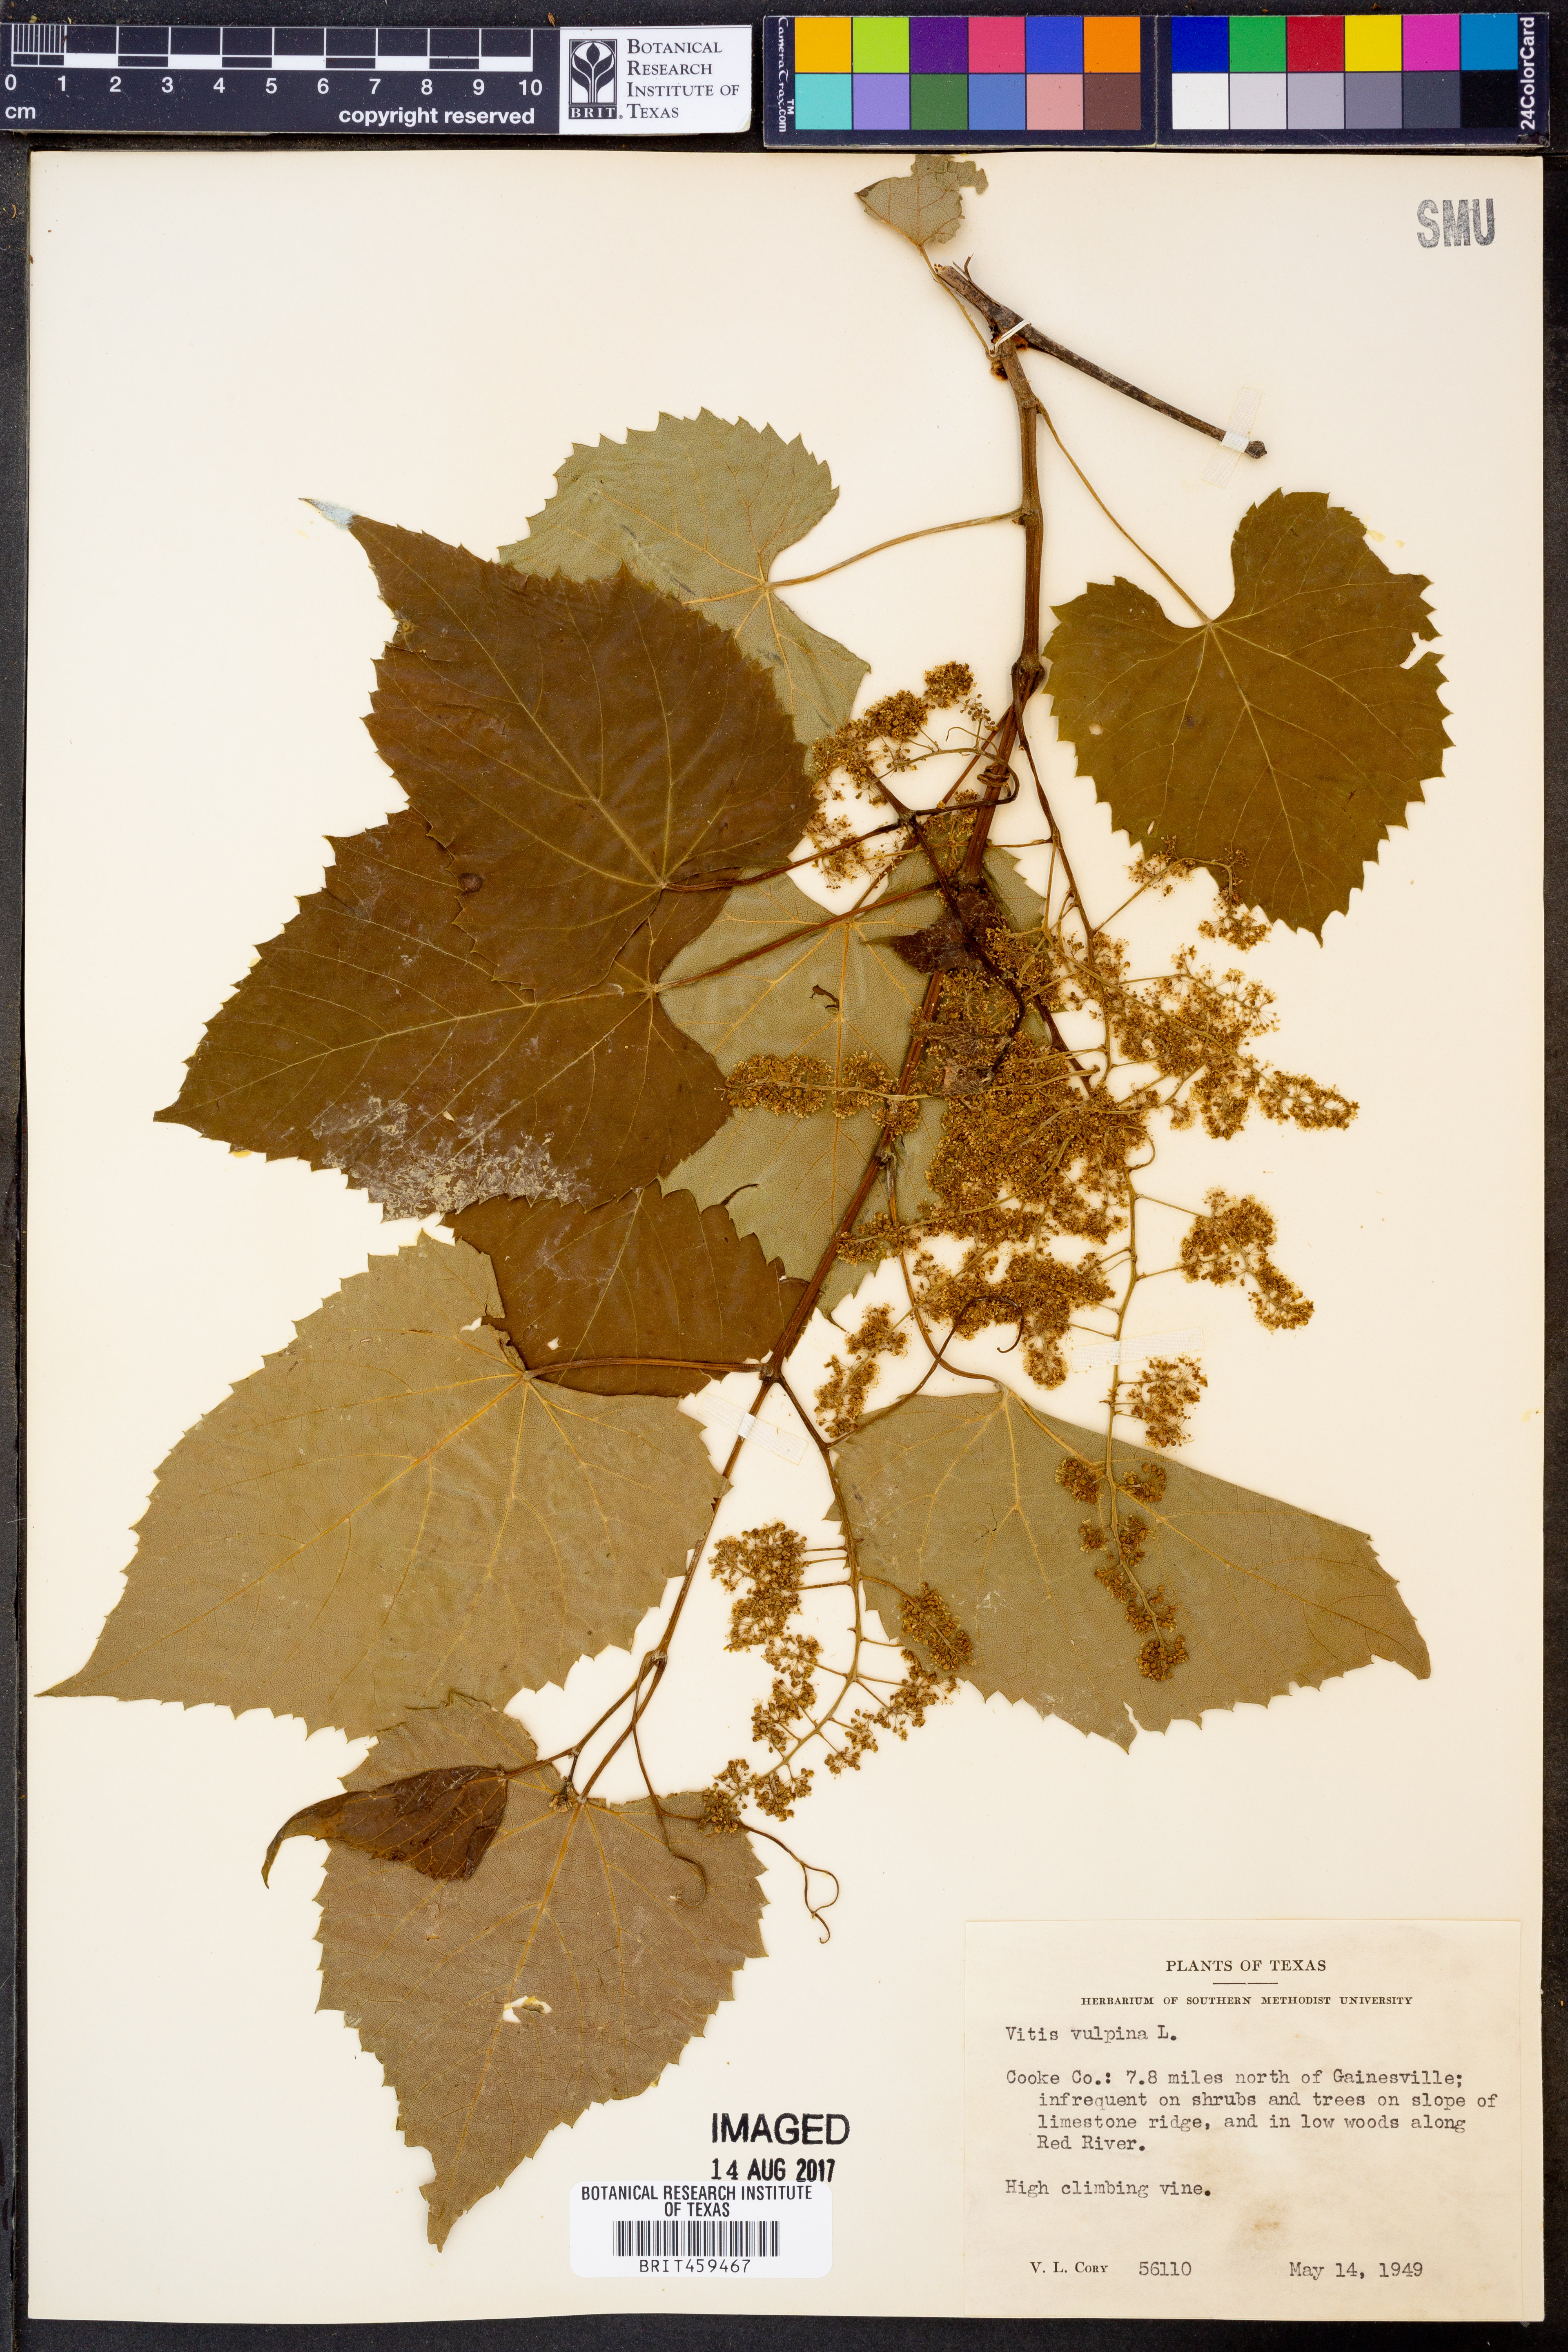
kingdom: Plantae
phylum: Tracheophyta
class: Magnoliopsida
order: Vitales
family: Vitaceae
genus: Vitis
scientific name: Vitis vulpina
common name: Frost grape
